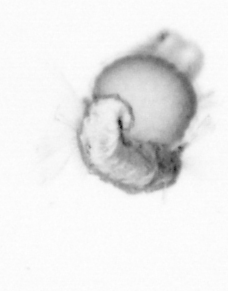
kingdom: Animalia
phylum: Annelida
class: Polychaeta
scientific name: Polychaeta
